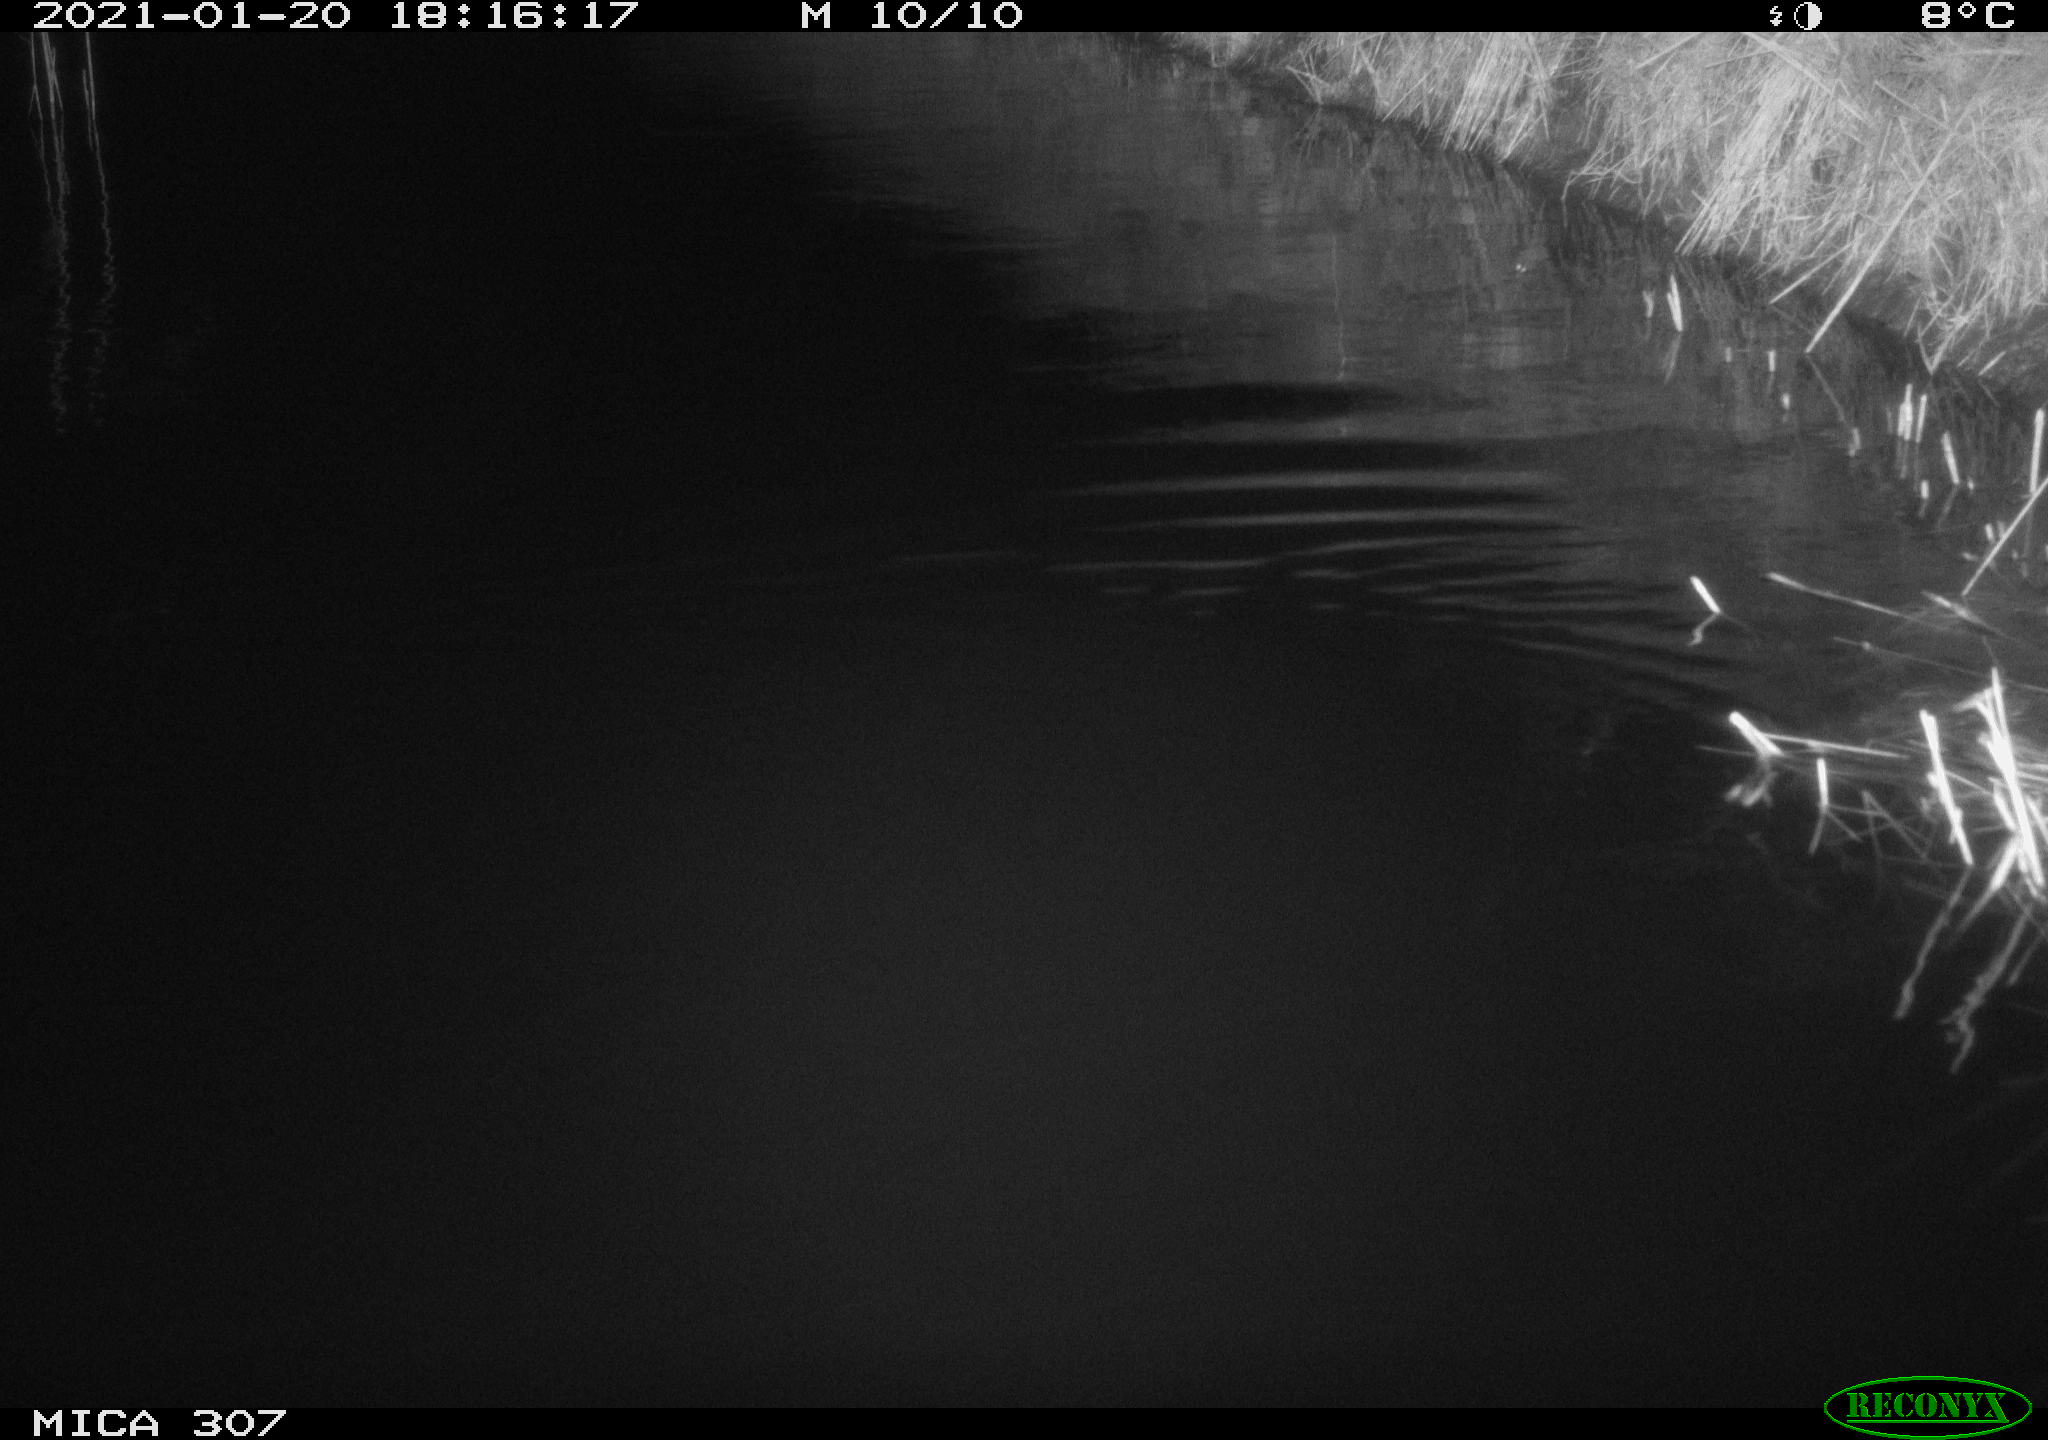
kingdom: Animalia
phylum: Chordata
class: Mammalia
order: Rodentia
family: Muridae
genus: Rattus
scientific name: Rattus norvegicus
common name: Brown rat
